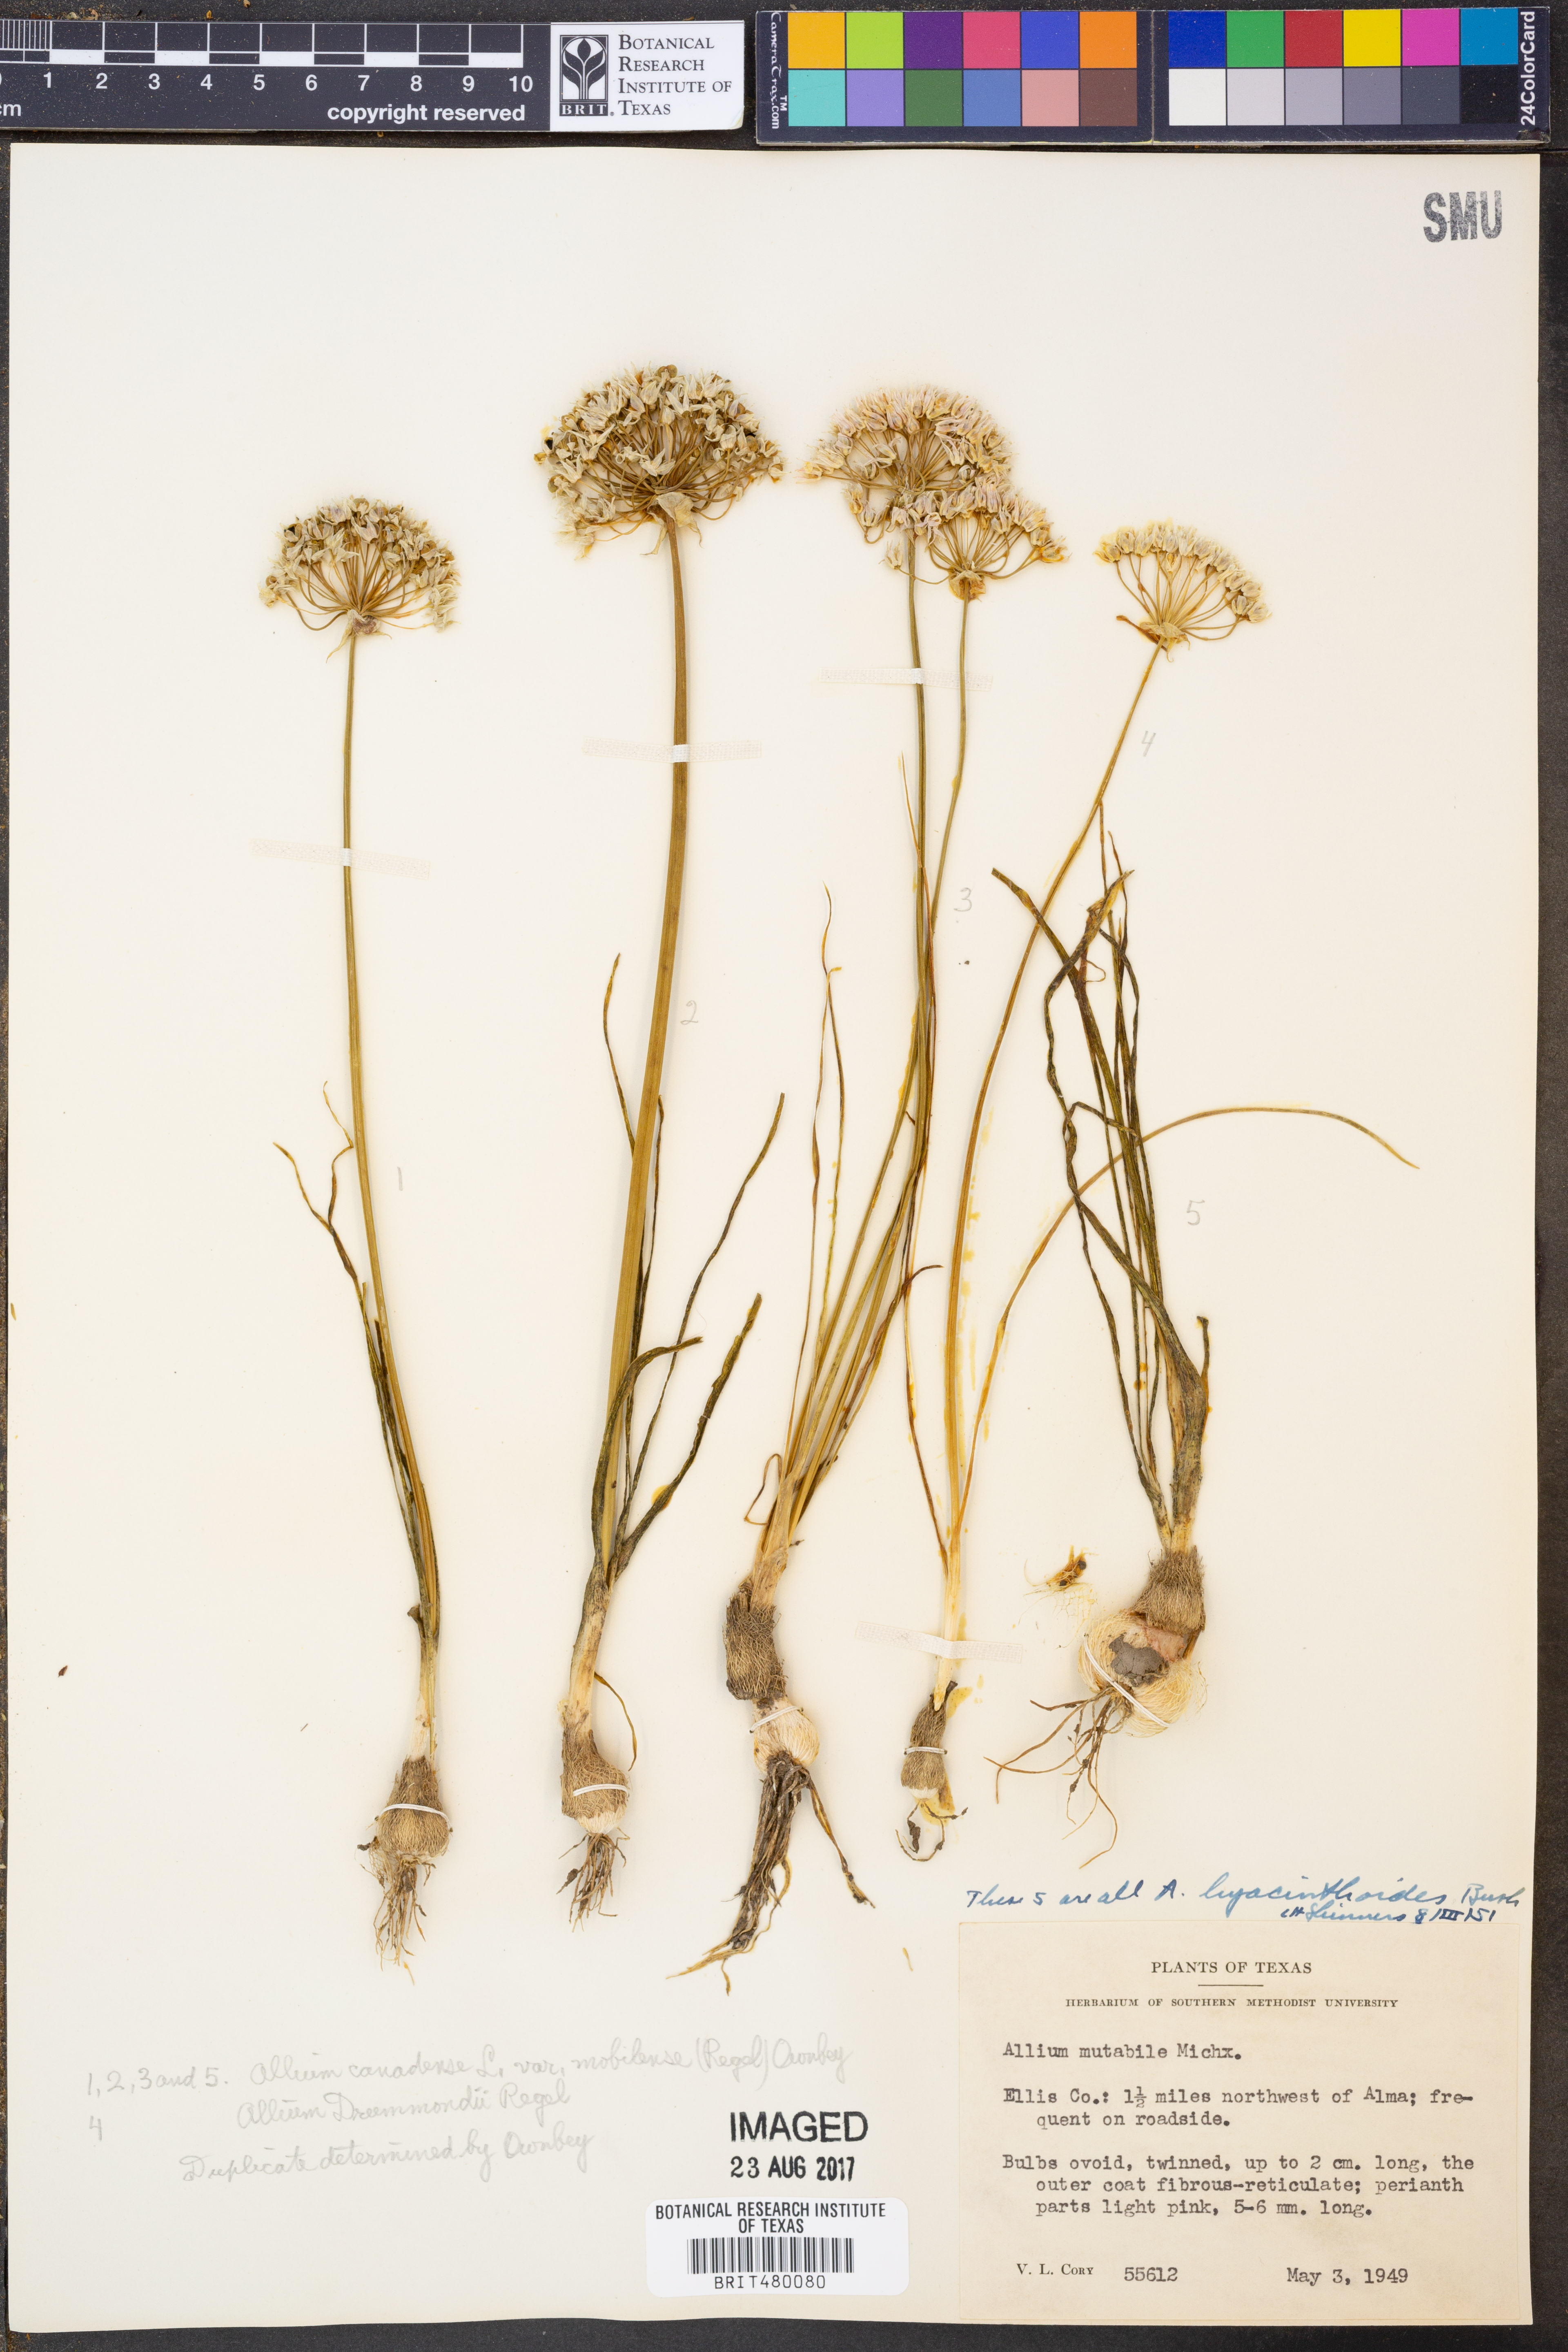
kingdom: Plantae
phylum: Tracheophyta
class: Liliopsida
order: Asparagales
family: Amaryllidaceae
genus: Allium
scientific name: Allium canadense
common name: Meadow garlic
